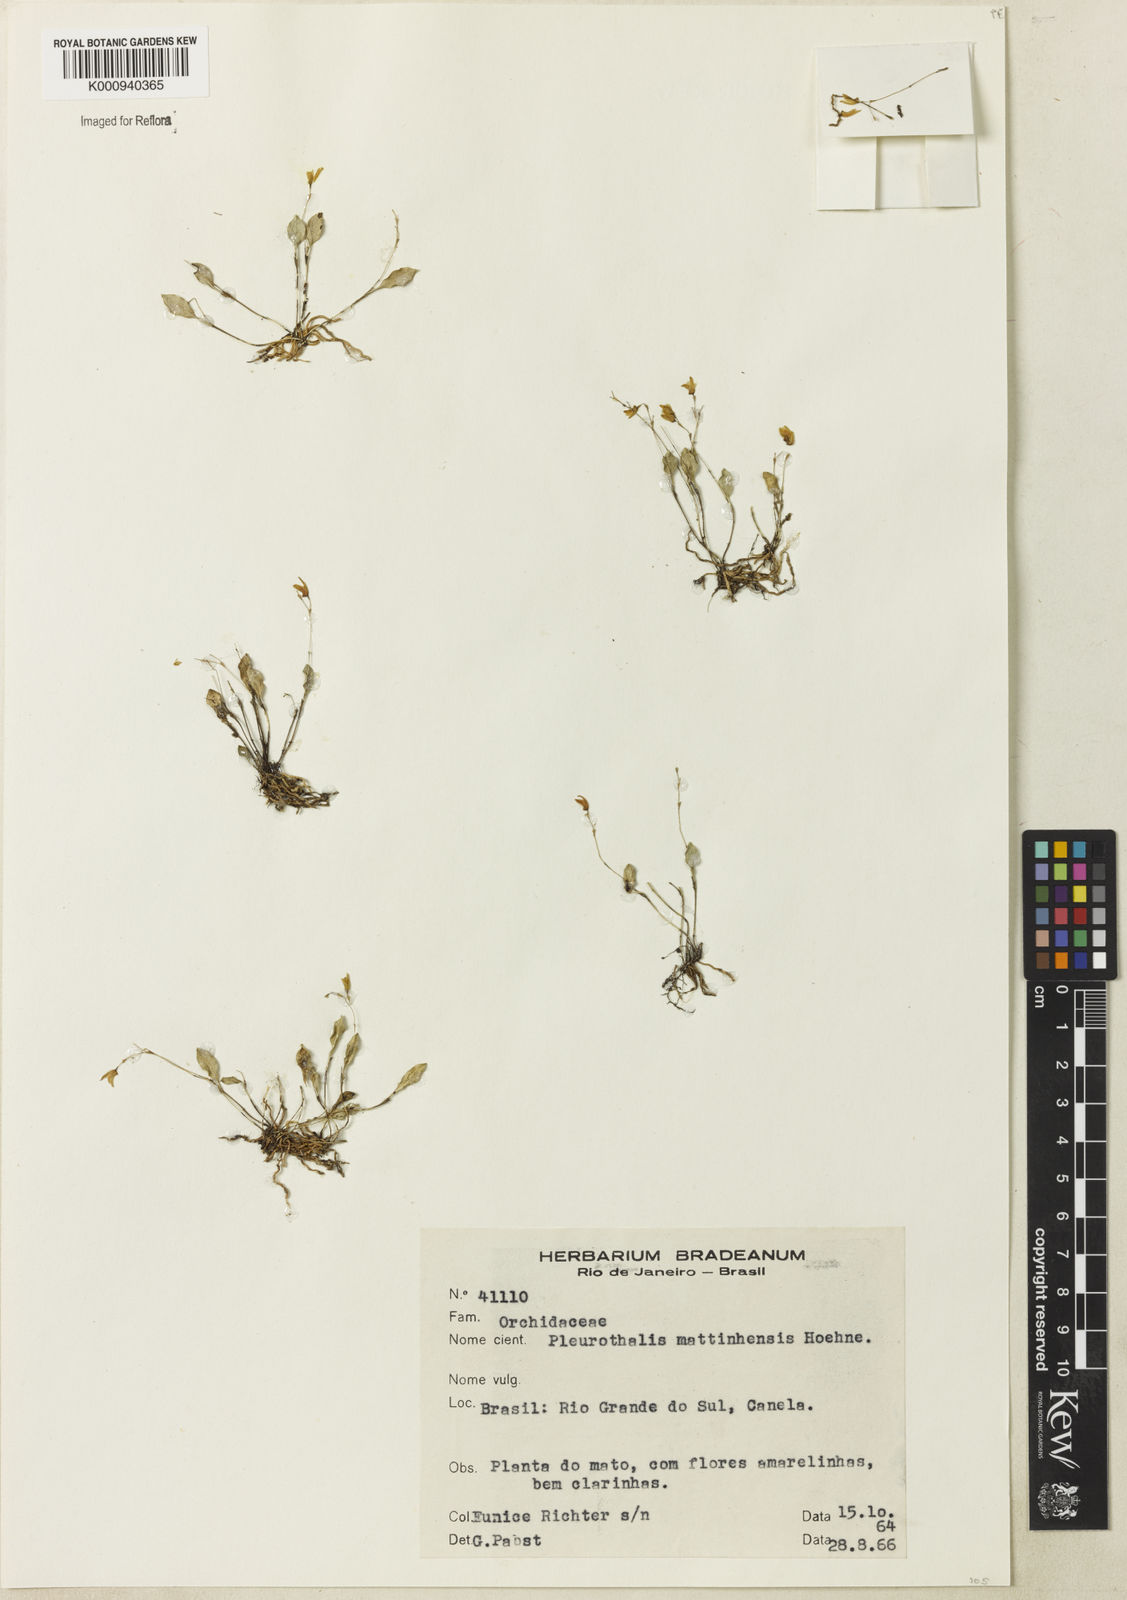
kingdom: Plantae
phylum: Tracheophyta
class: Liliopsida
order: Asparagales
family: Orchidaceae
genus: Pabstiella
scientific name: Pabstiella matinhensis
